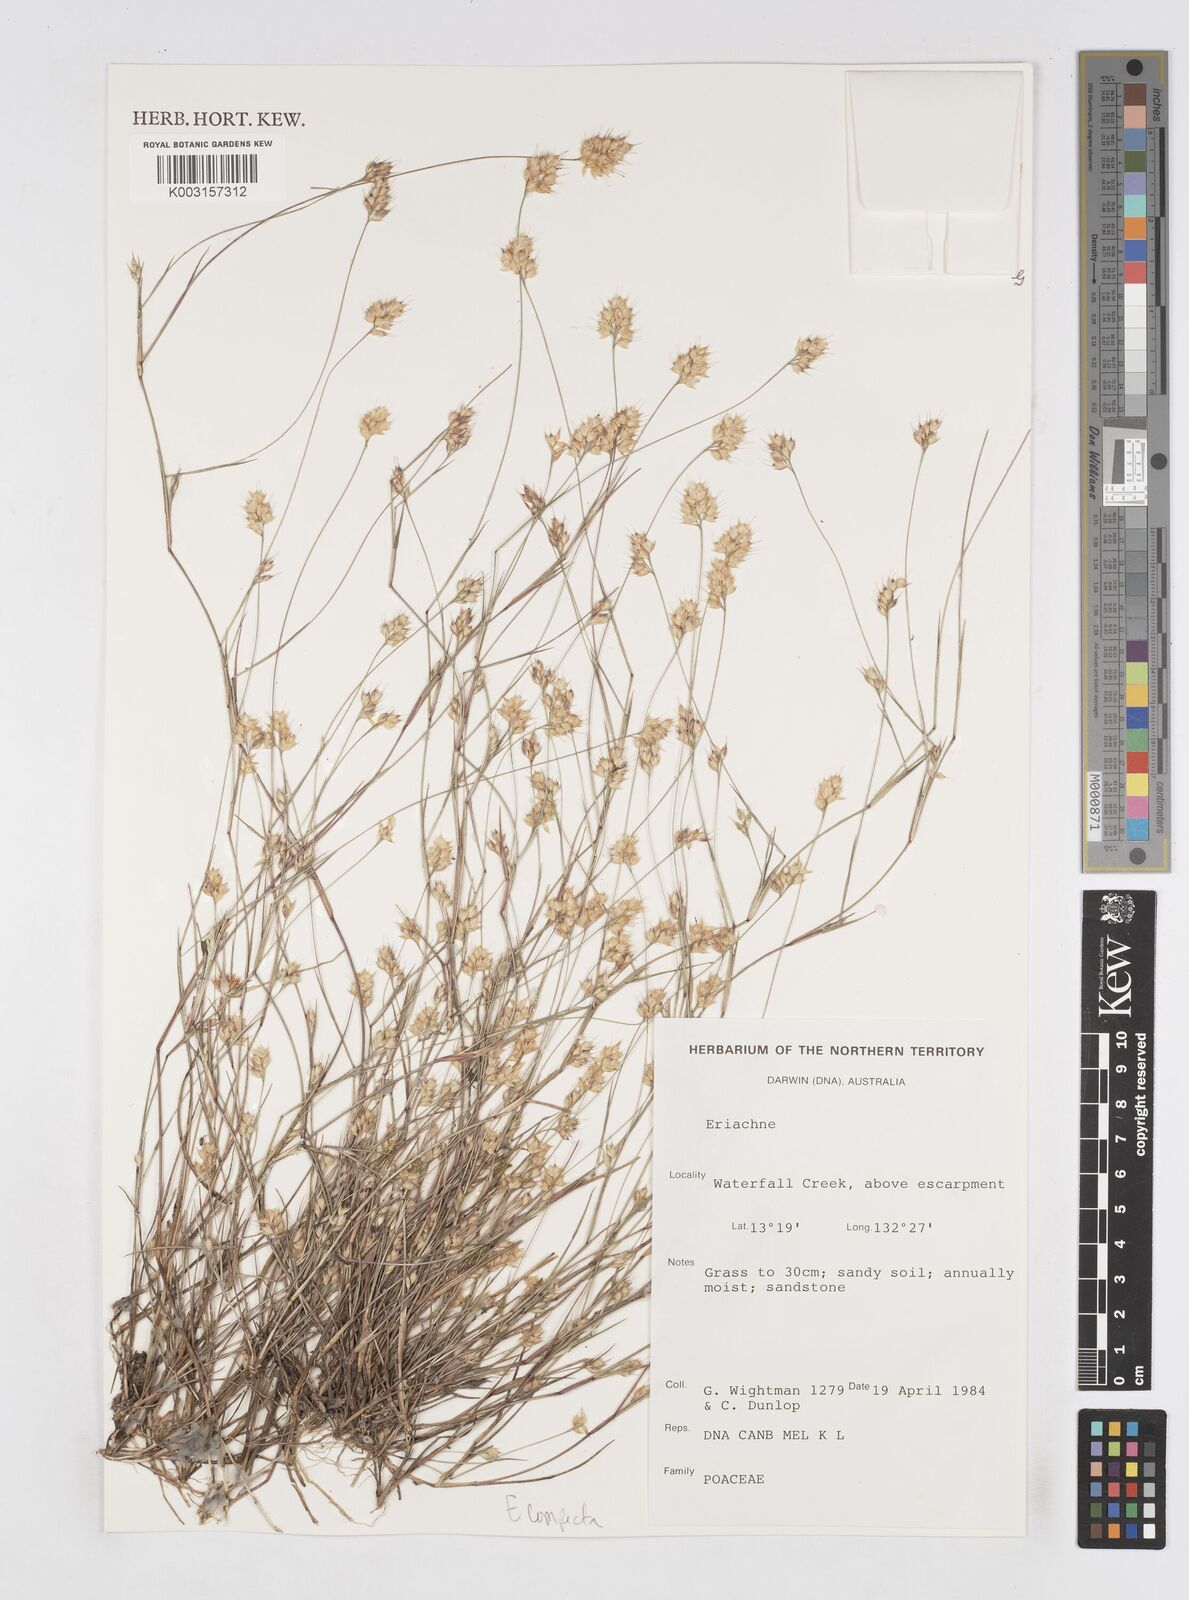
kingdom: Plantae
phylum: Tracheophyta
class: Liliopsida
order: Poales
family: Poaceae
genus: Eriachne
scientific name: Eriachne compacta
